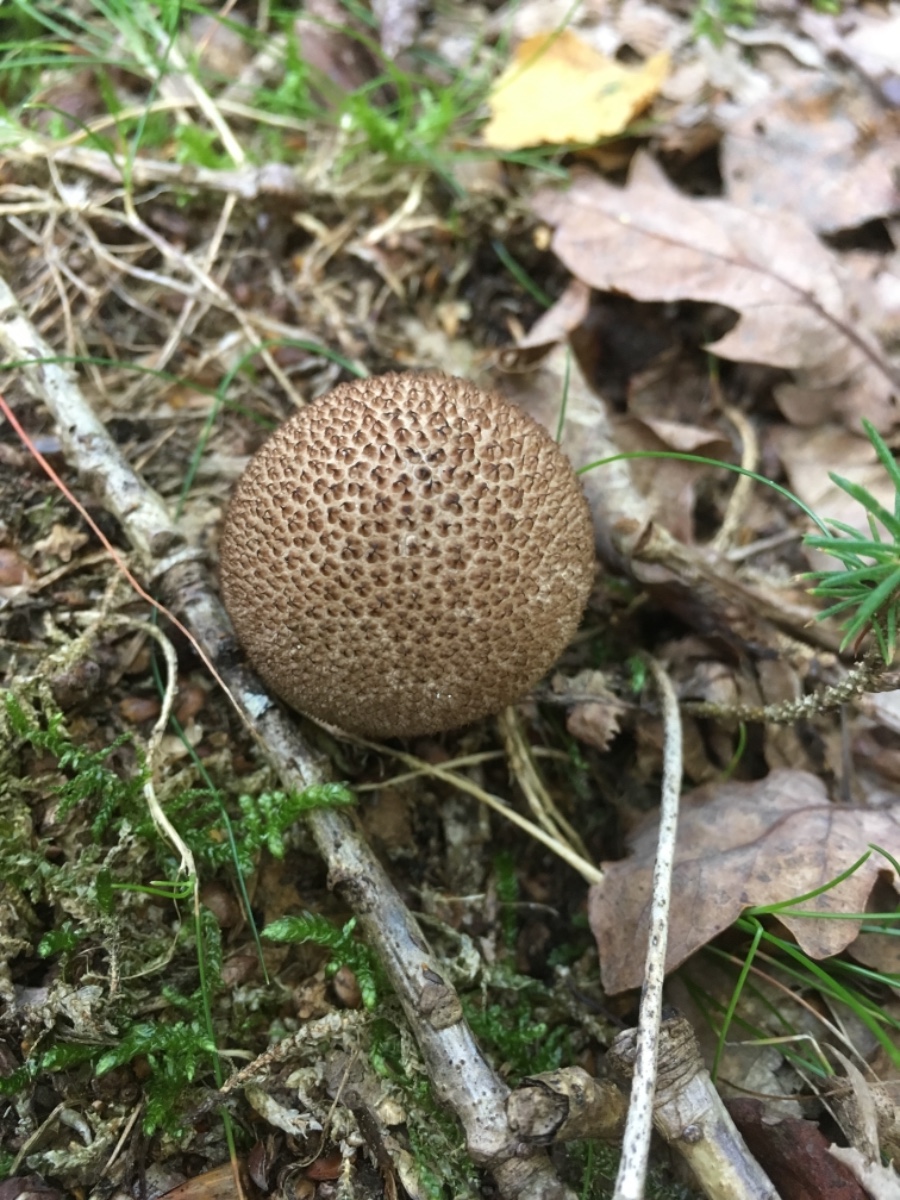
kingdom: Fungi
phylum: Basidiomycota
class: Agaricomycetes
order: Agaricales
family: Lycoperdaceae
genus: Lycoperdon
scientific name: Lycoperdon nigrescens
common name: sortagtig støvbold
